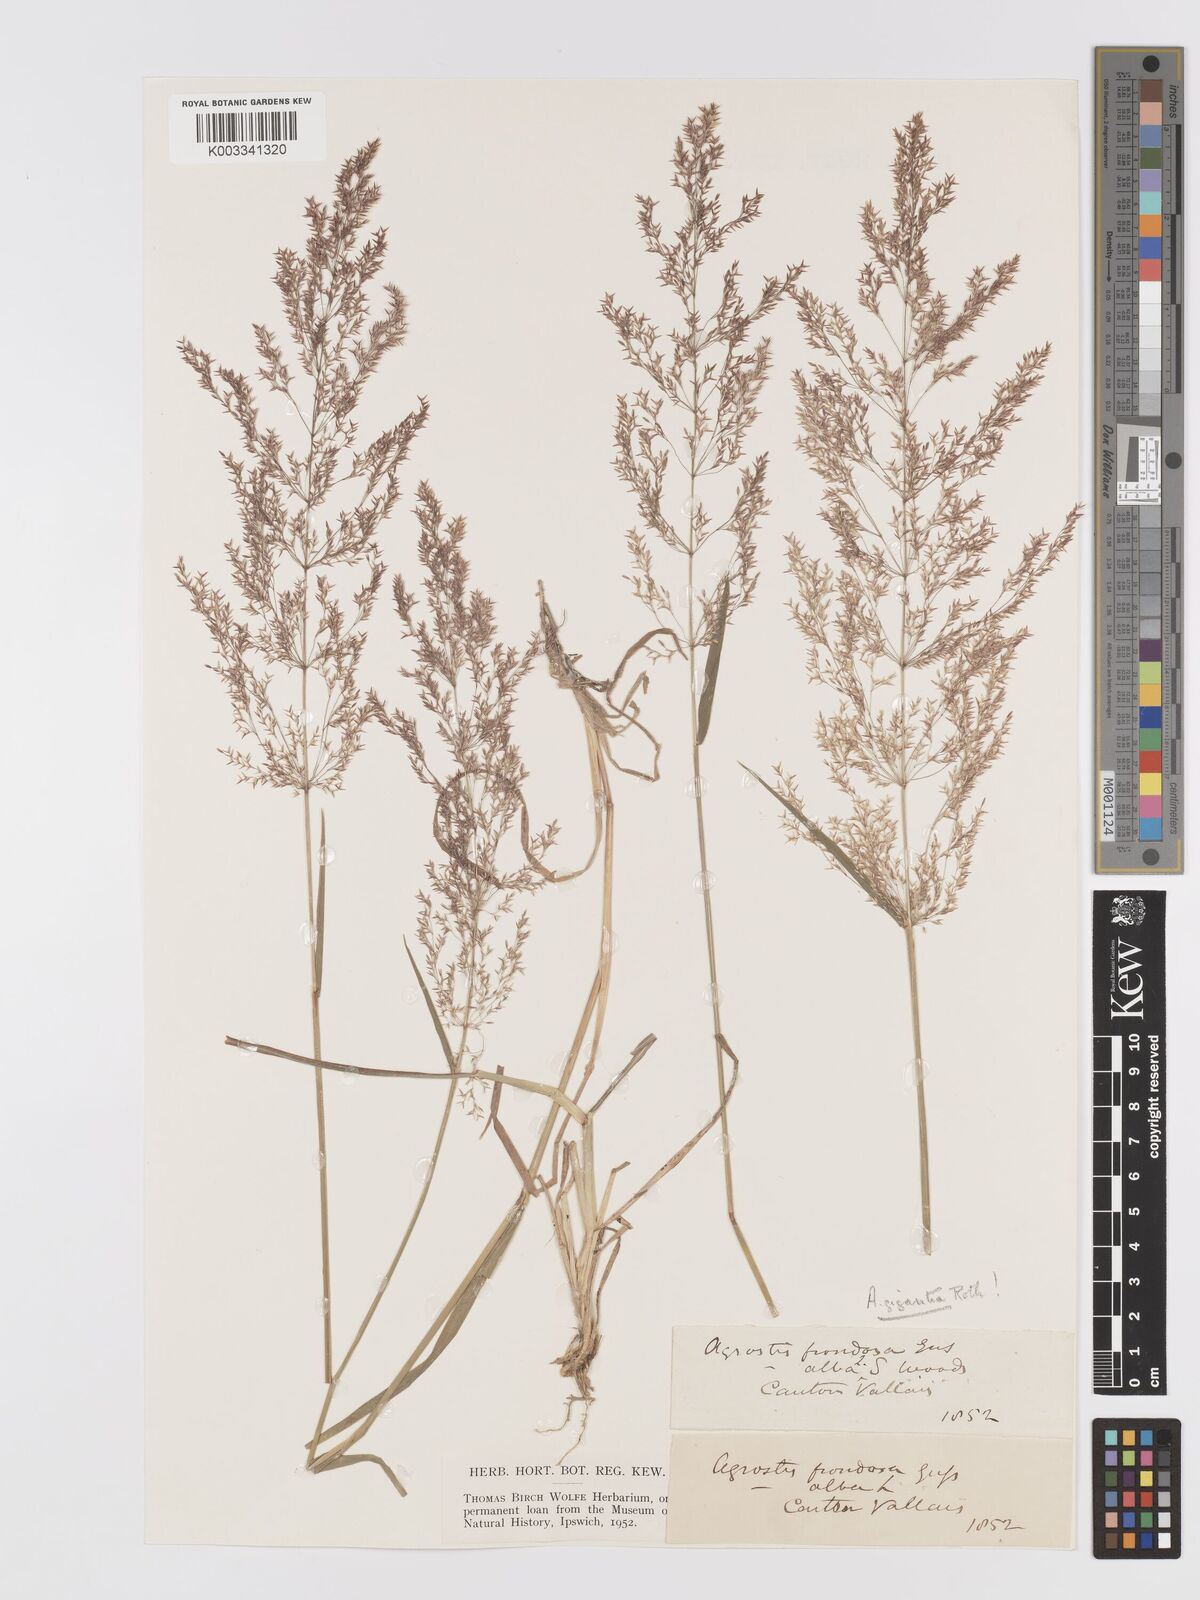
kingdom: Plantae
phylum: Tracheophyta
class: Liliopsida
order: Poales
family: Poaceae
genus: Agrostis
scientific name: Agrostis gigantea
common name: Black bent
